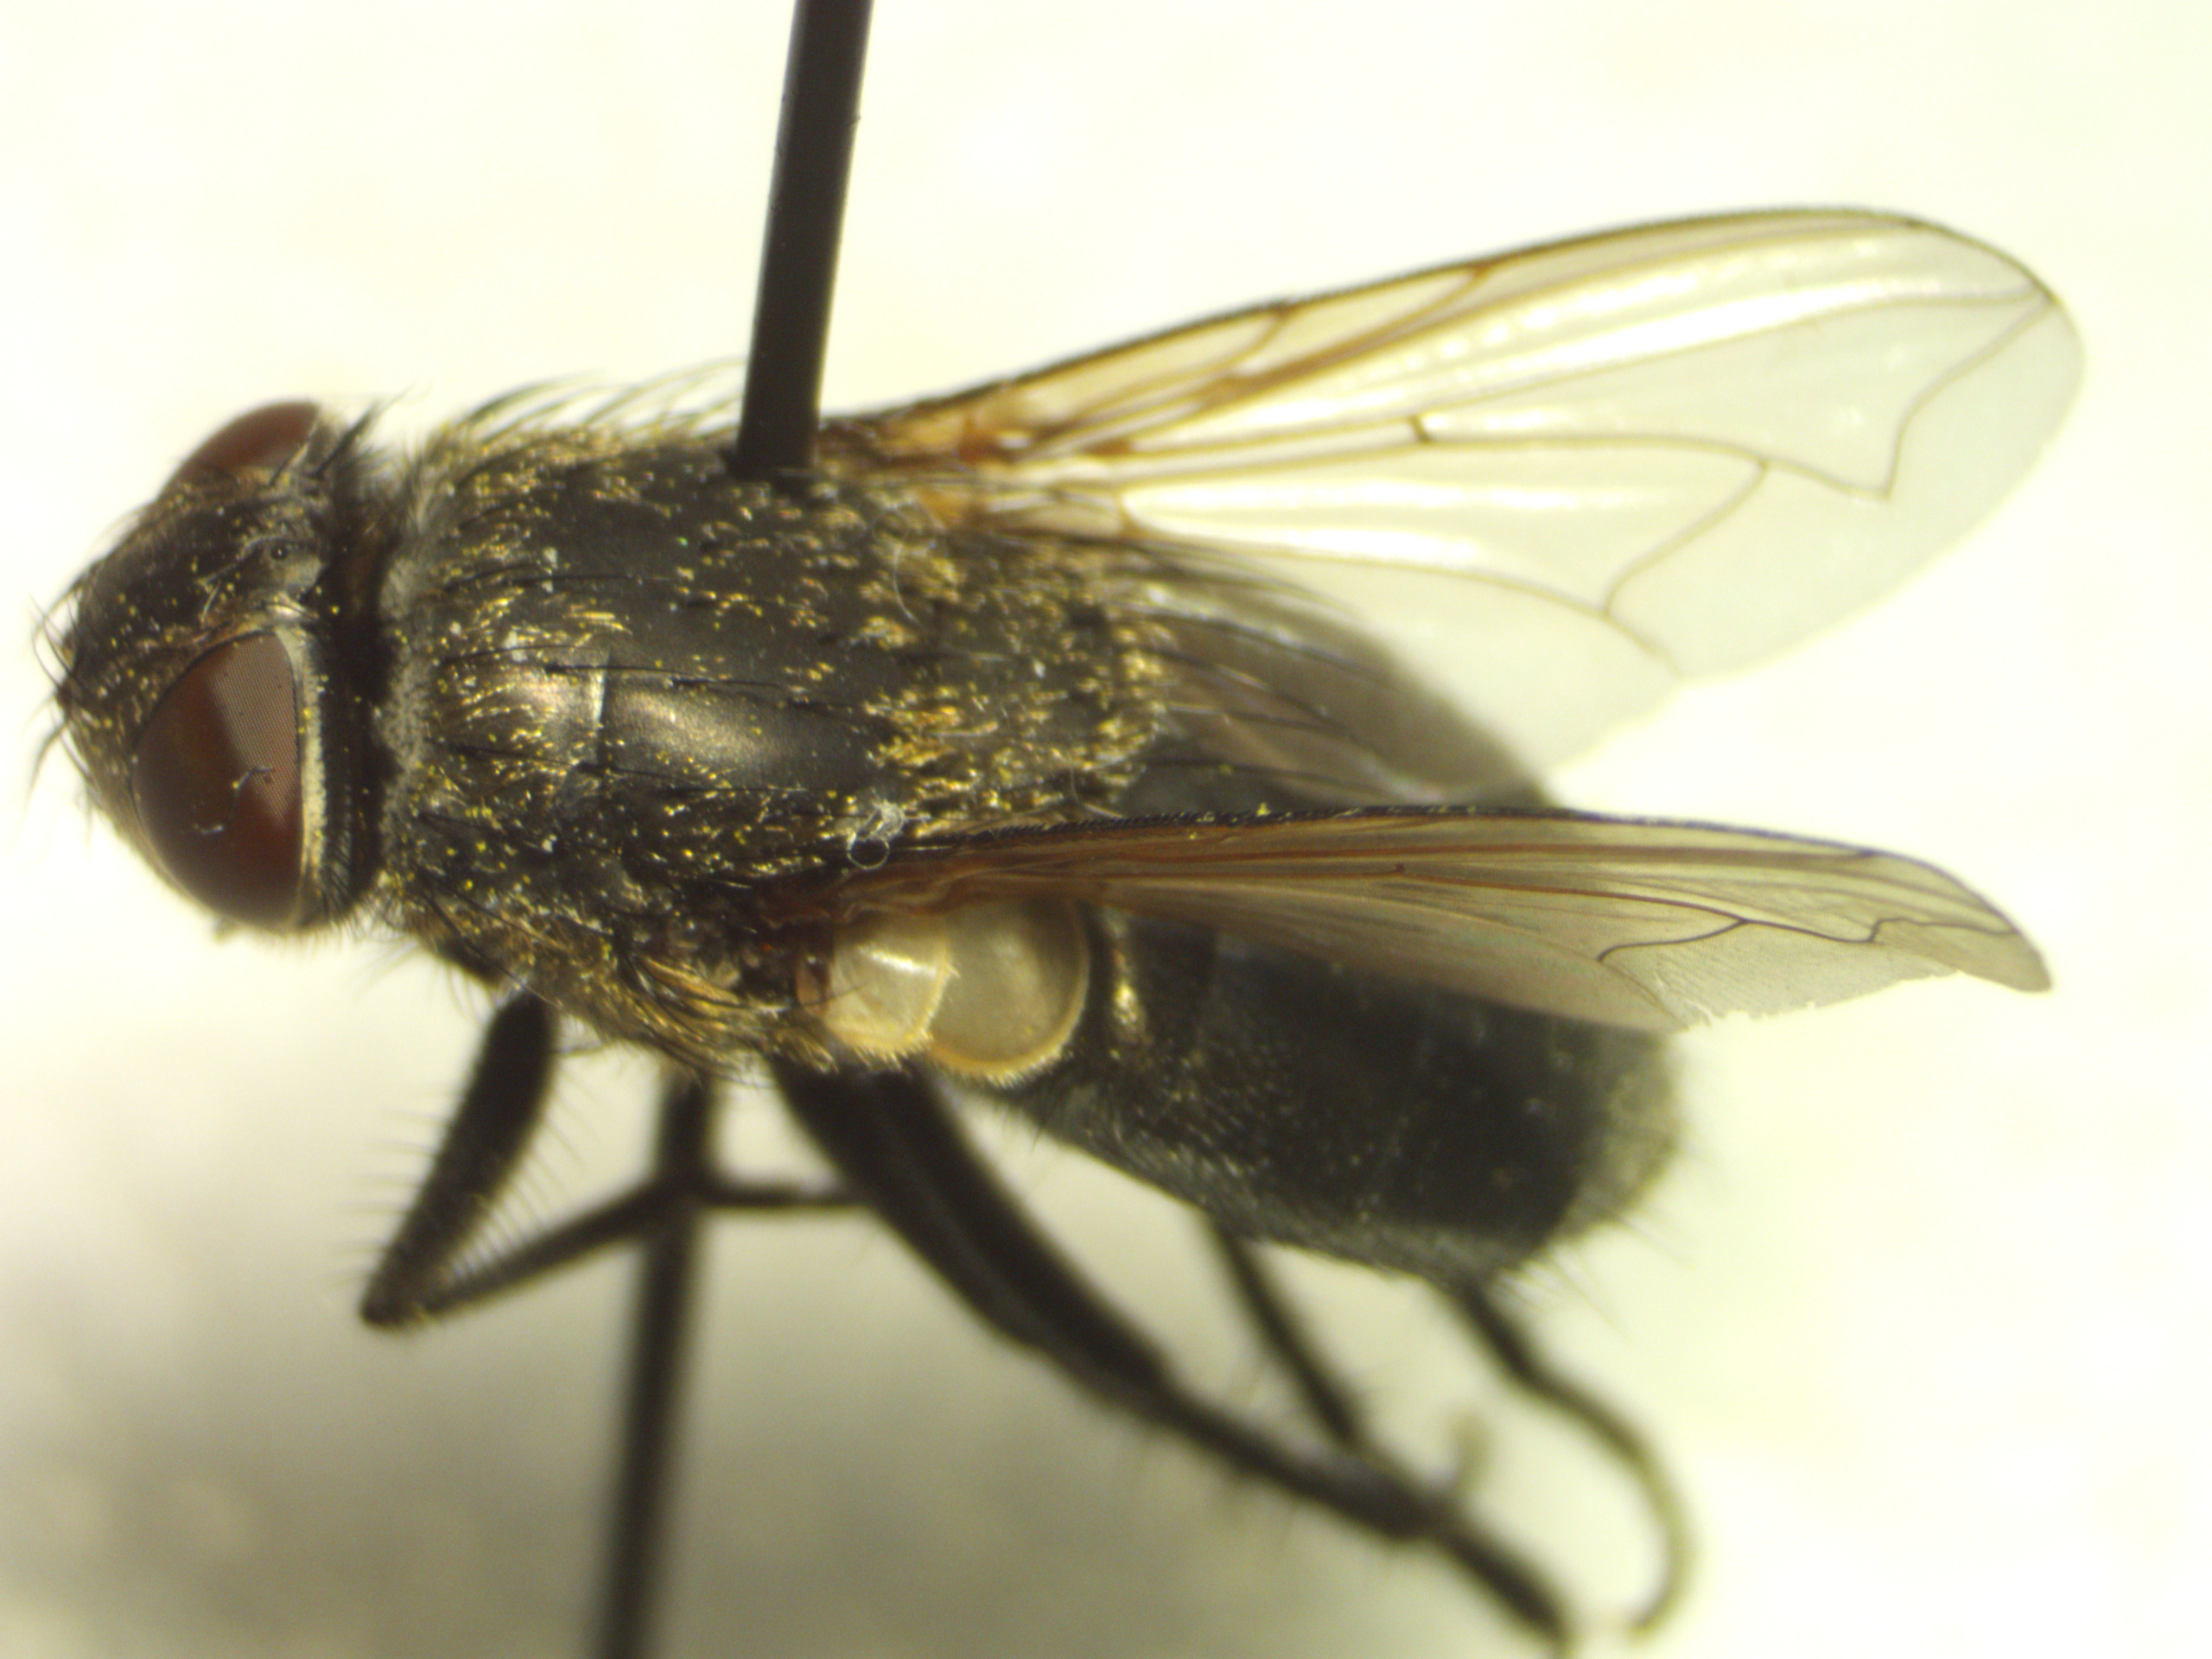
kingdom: Animalia
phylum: Arthropoda
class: Insecta
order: Diptera
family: Polleniidae
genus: Pollenia
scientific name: Pollenia amentaria
